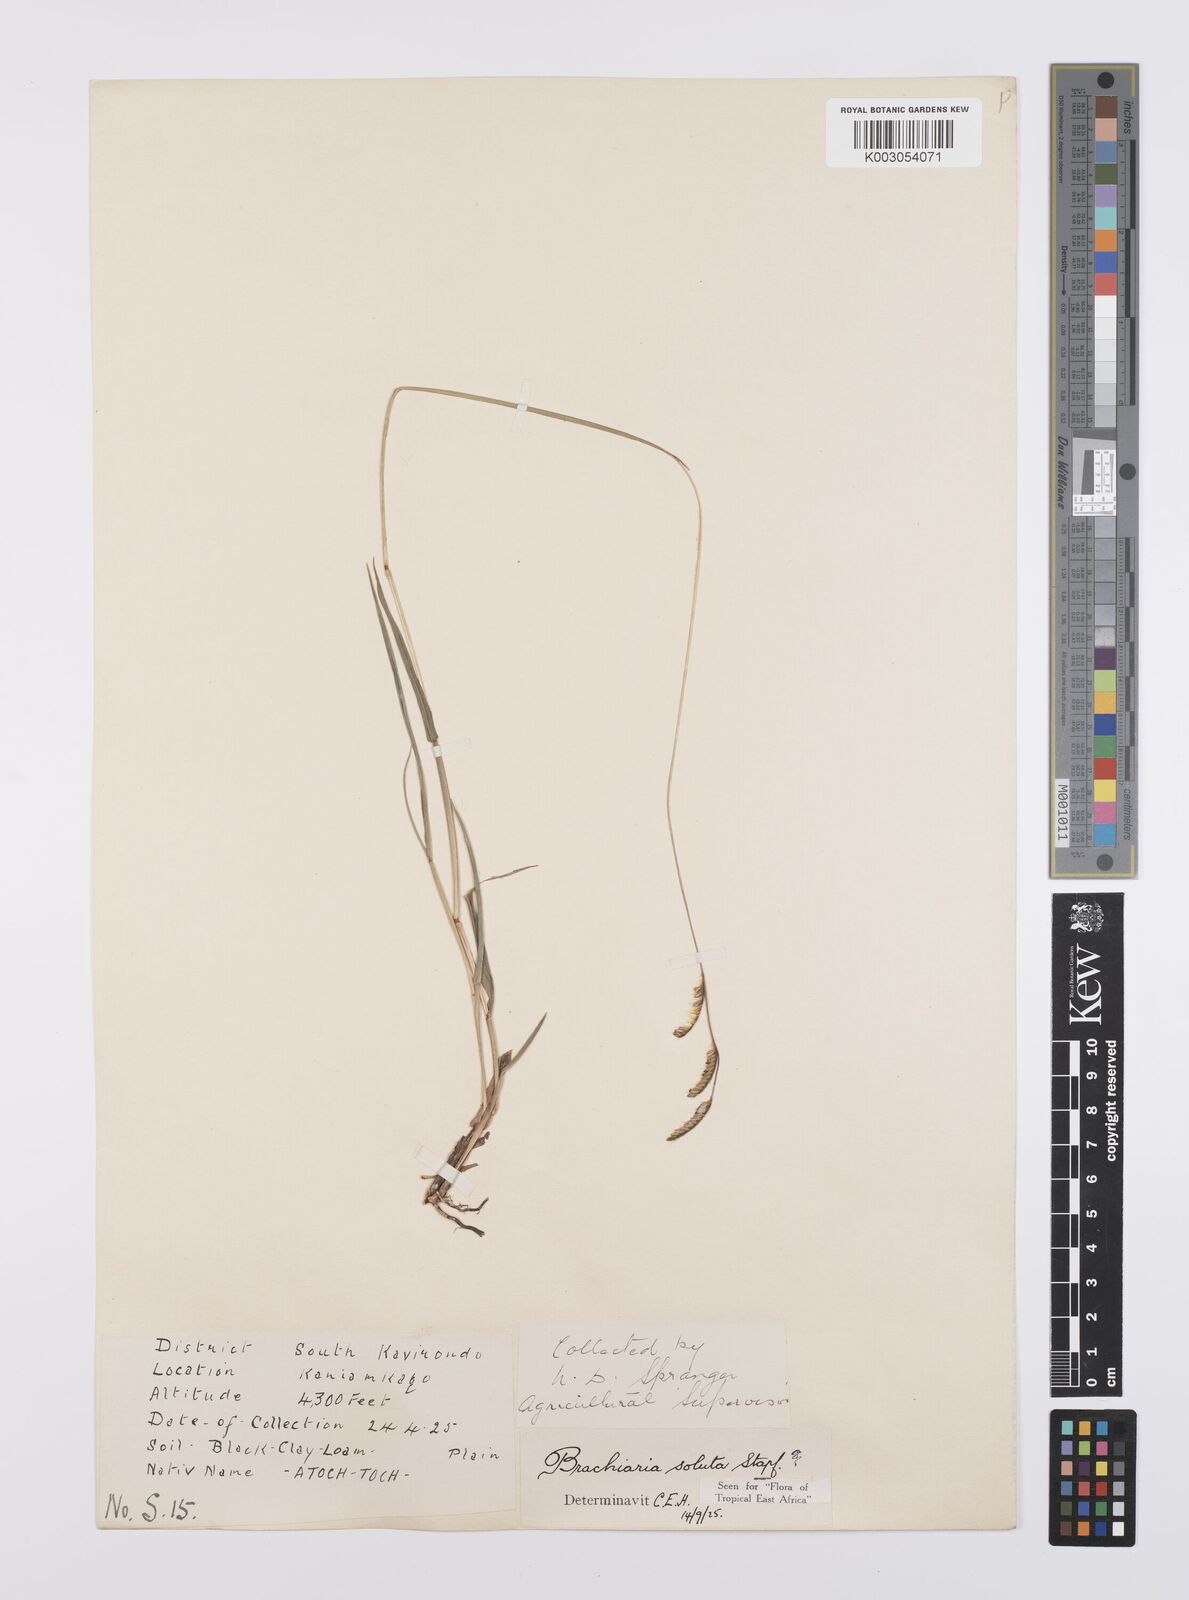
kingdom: Plantae
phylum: Tracheophyta
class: Liliopsida
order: Poales
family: Poaceae
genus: Urochloa
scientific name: Urochloa jubata
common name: Buffalograss
